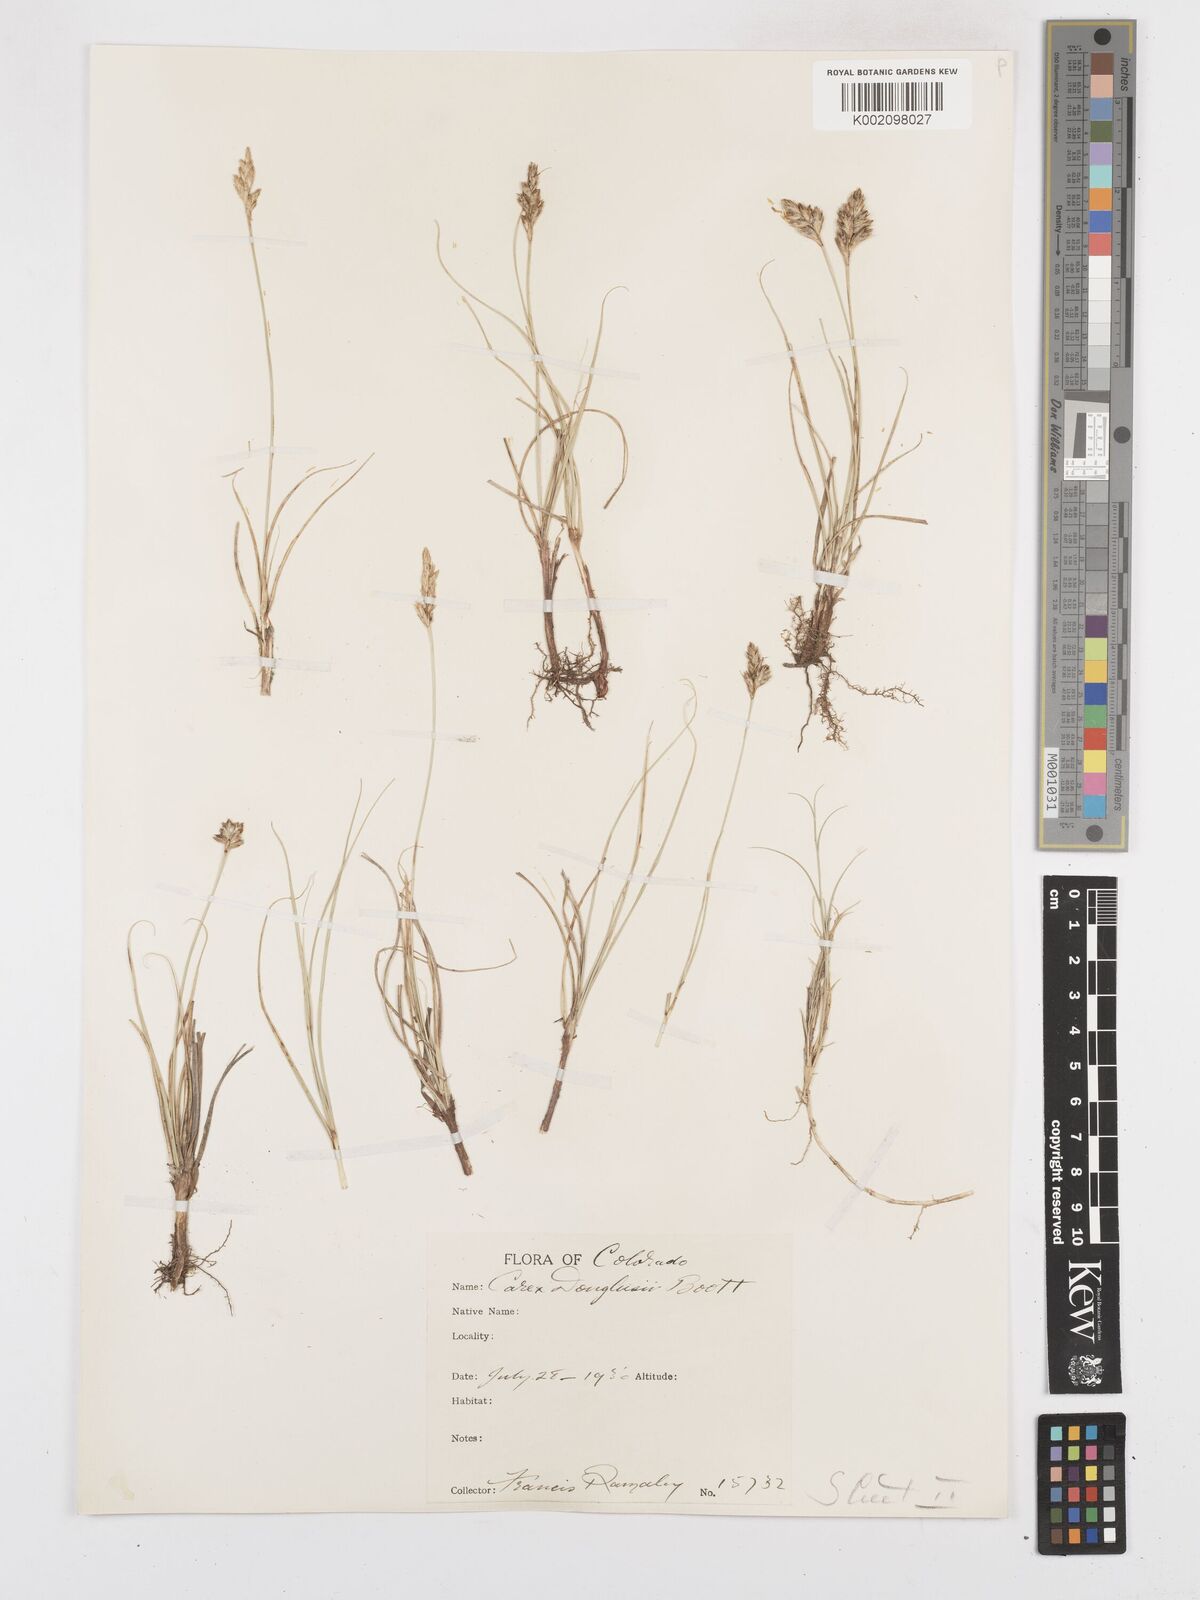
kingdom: Plantae
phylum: Tracheophyta
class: Liliopsida
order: Poales
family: Cyperaceae
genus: Carex
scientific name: Carex douglasii
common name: Douglas' sedge
